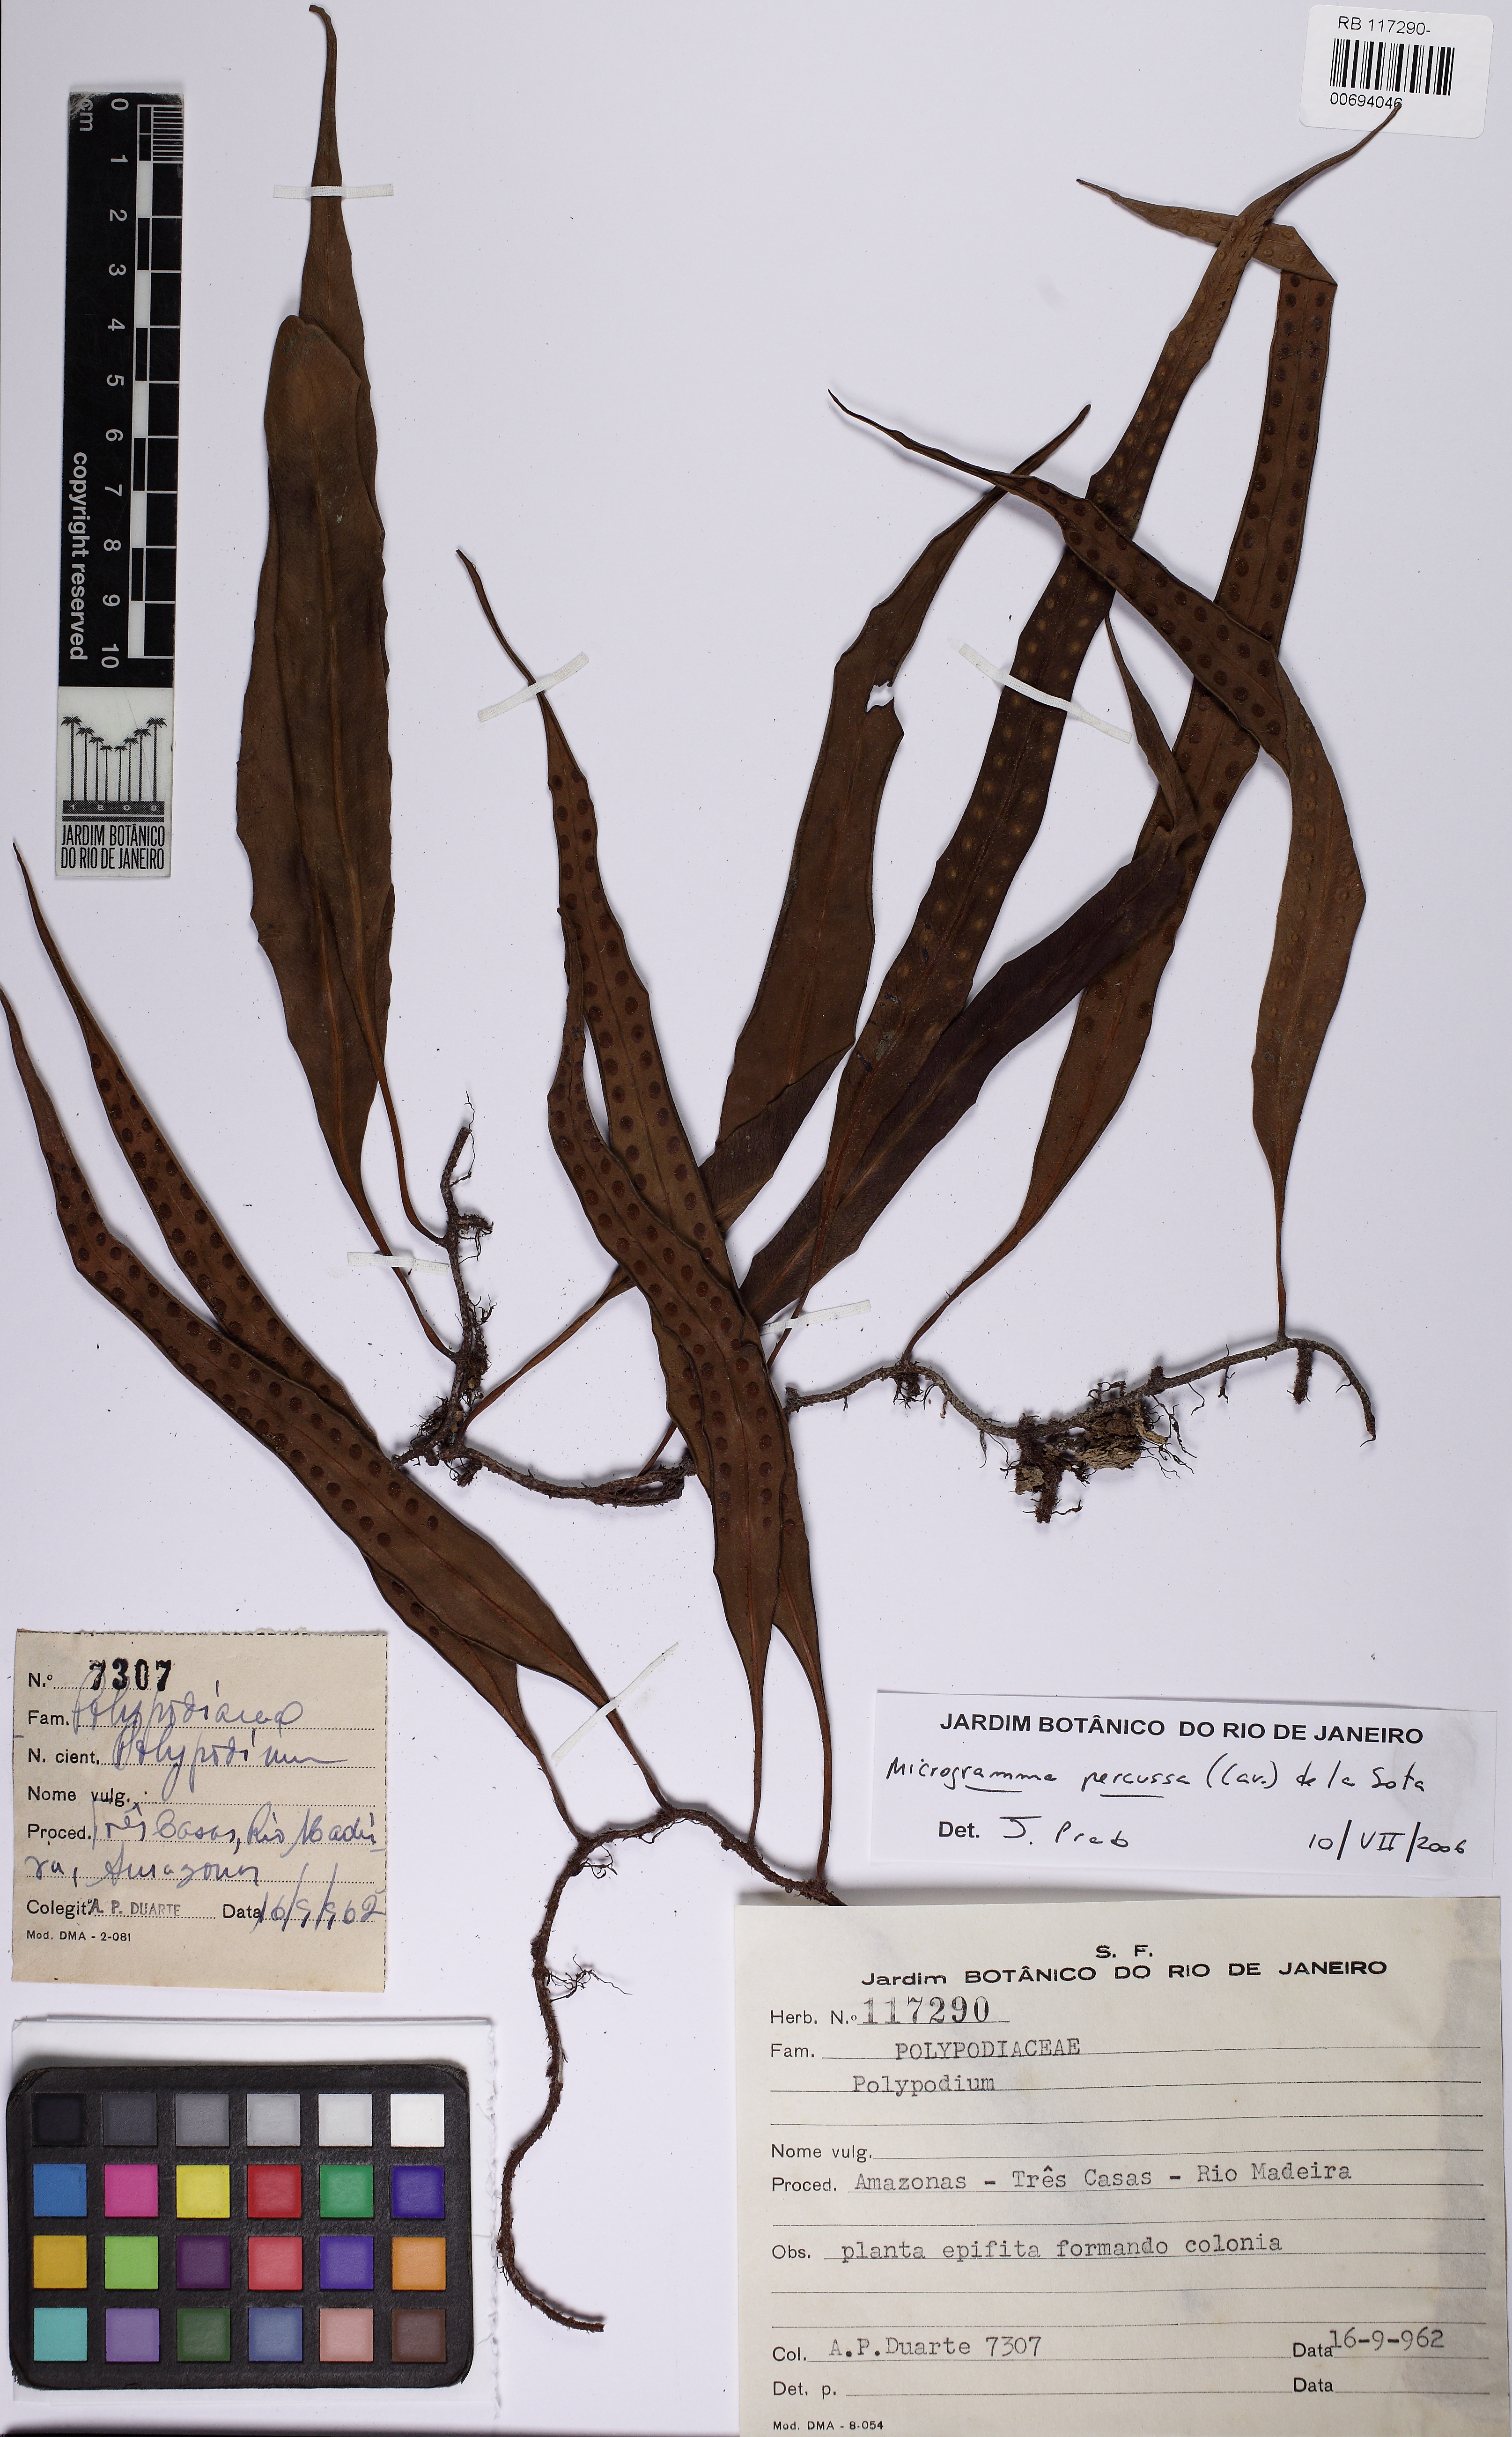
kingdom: Plantae
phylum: Tracheophyta
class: Polypodiopsida
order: Polypodiales
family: Polypodiaceae
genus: Microgramma
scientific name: Microgramma percussa
